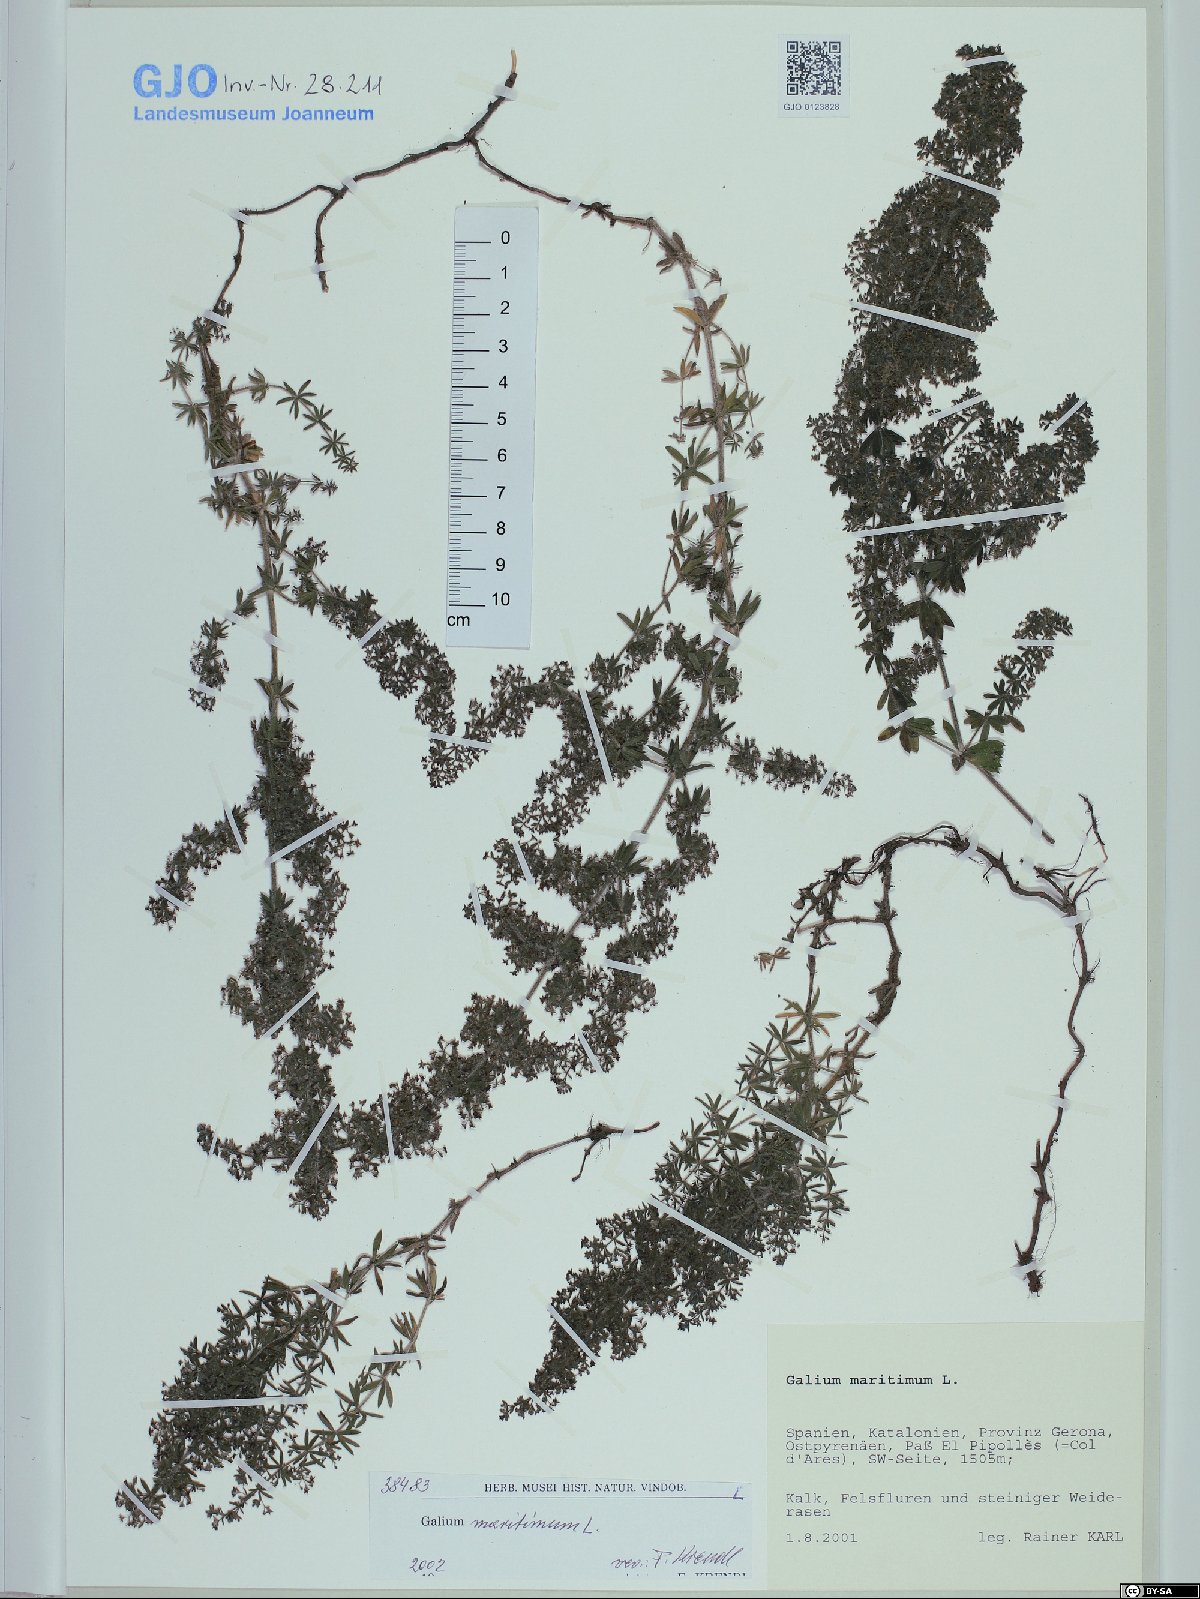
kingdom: Plantae
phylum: Tracheophyta
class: Magnoliopsida
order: Gentianales
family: Rubiaceae
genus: Galium
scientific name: Galium maritimum
